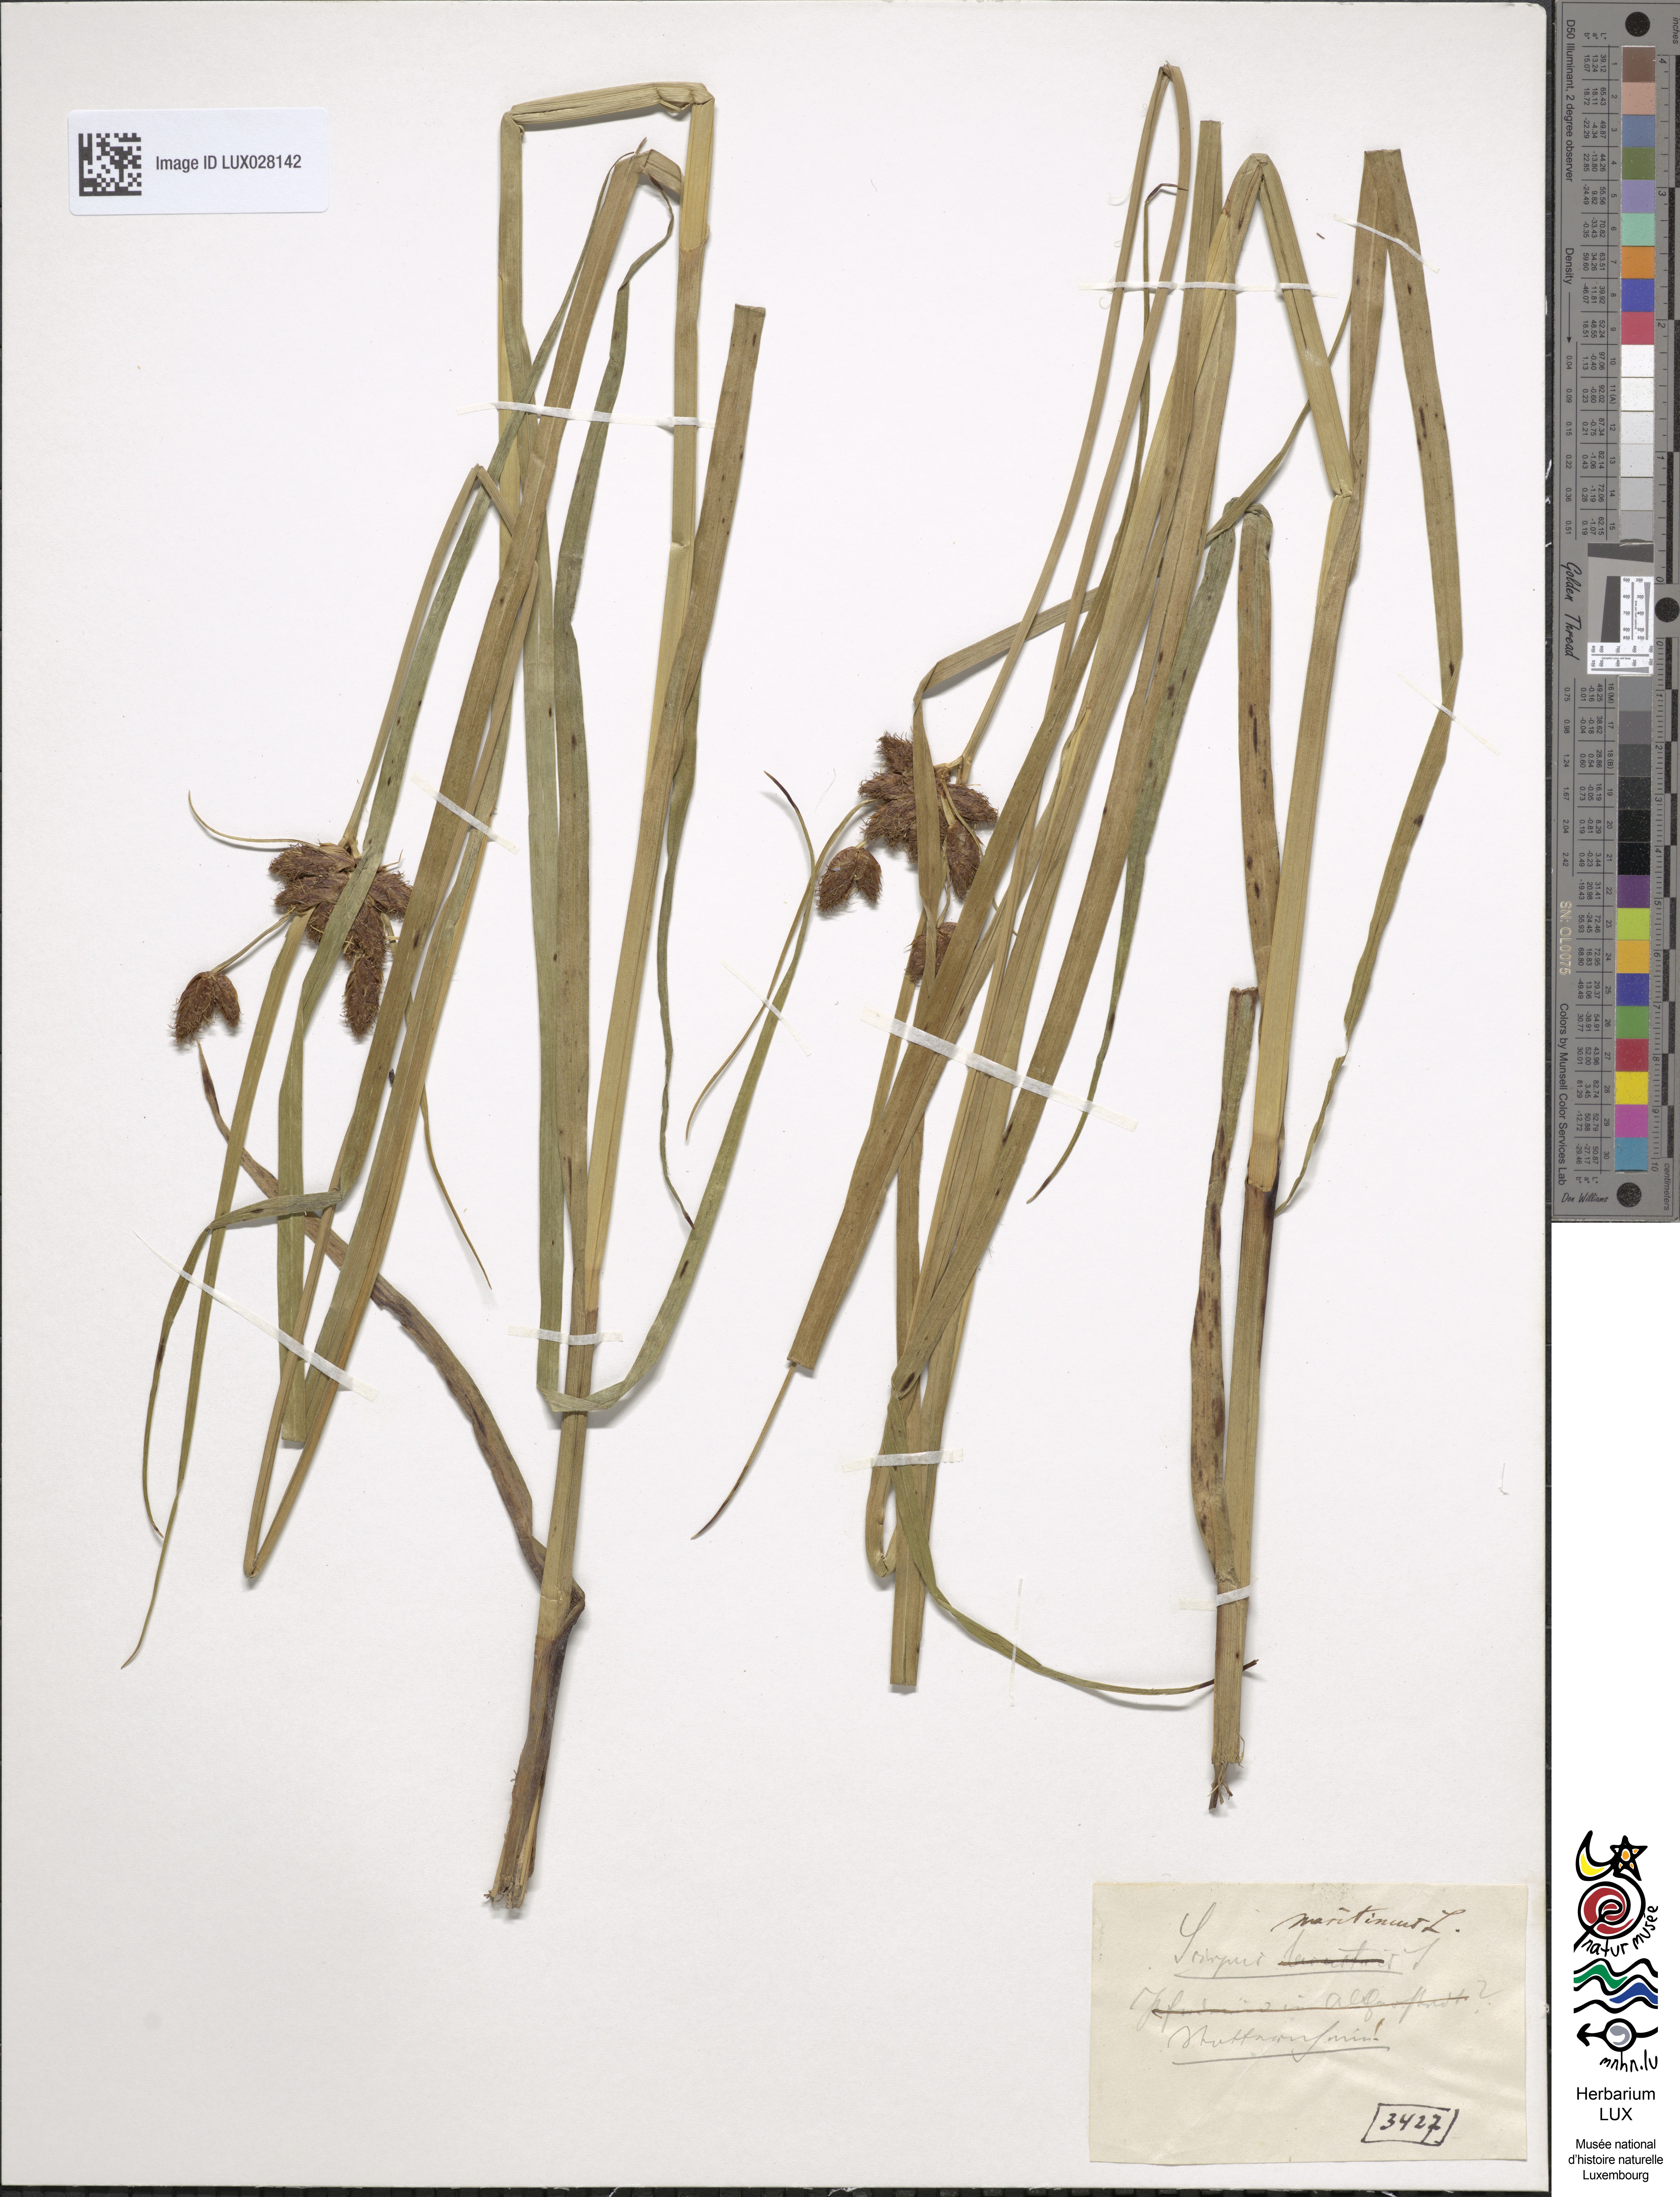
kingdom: Plantae
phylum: Tracheophyta
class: Liliopsida
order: Poales
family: Cyperaceae
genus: Bolboschoenus
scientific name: Bolboschoenus maritimus
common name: Sea club-rush
